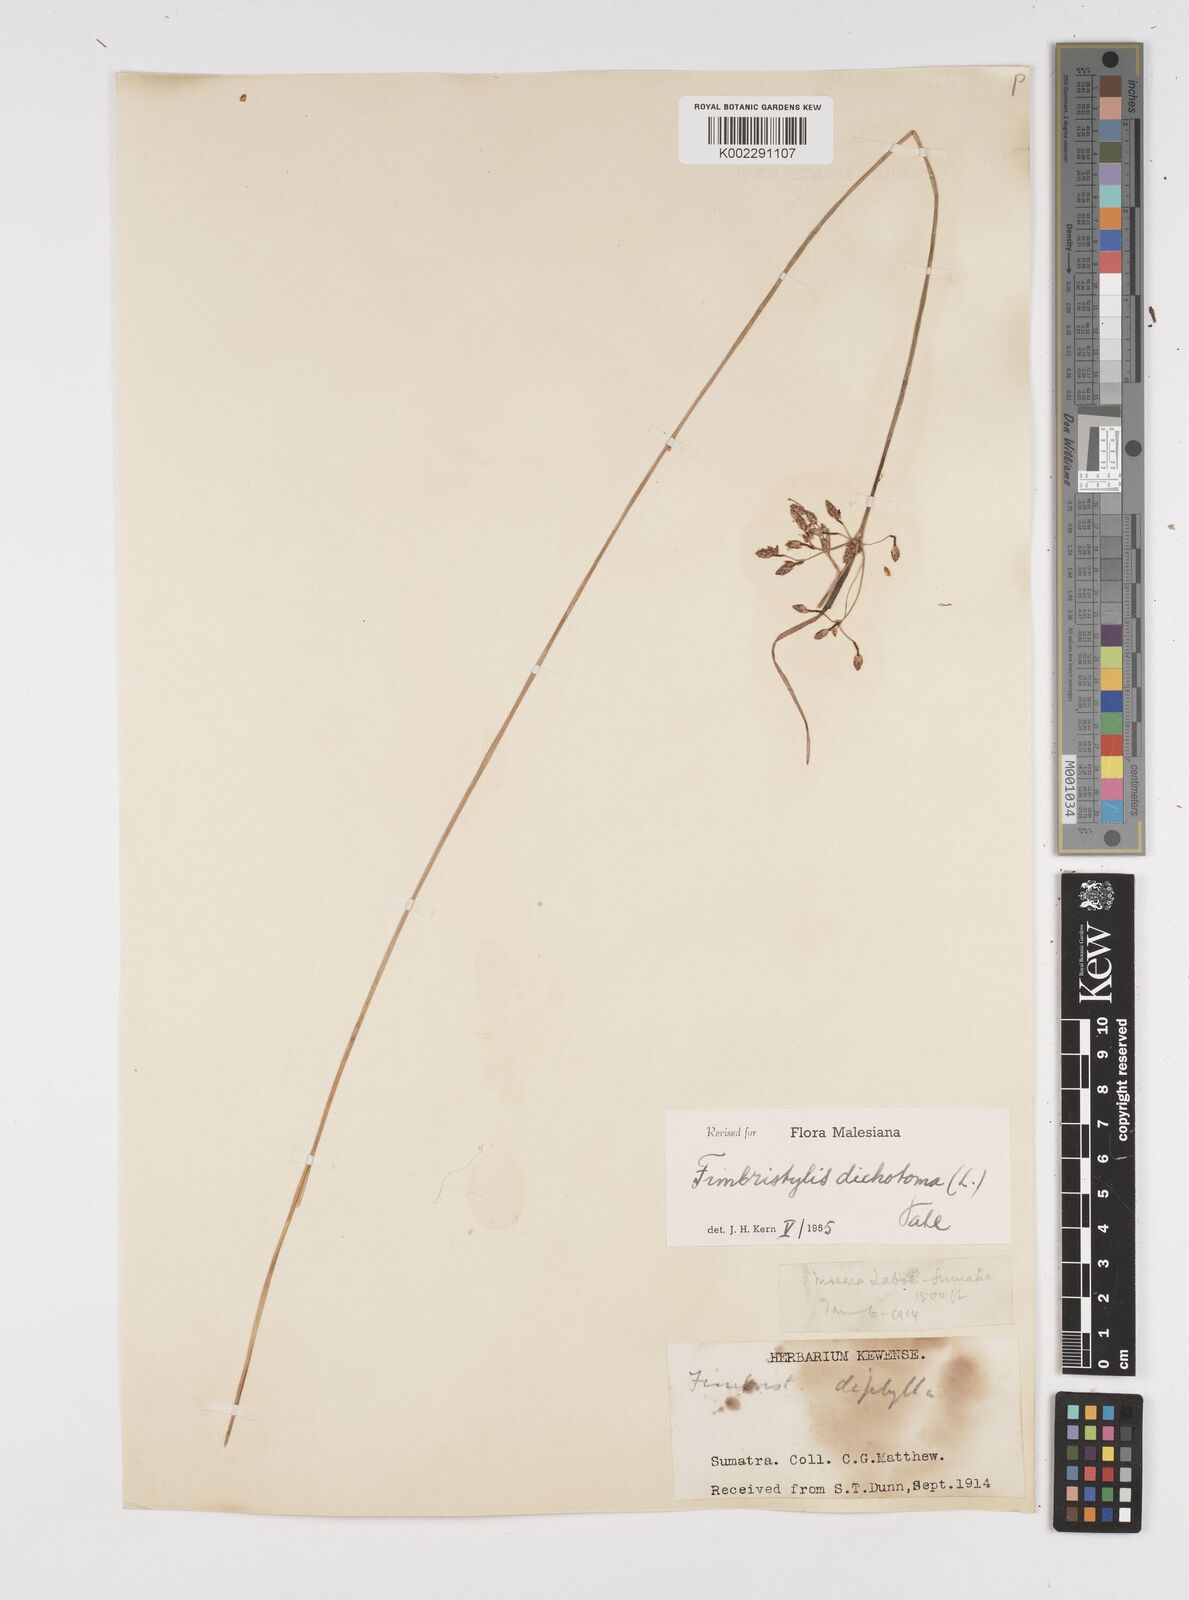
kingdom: Plantae
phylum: Tracheophyta
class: Liliopsida
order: Poales
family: Cyperaceae
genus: Fimbristylis
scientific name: Fimbristylis dichotoma
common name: Forked fimbry
